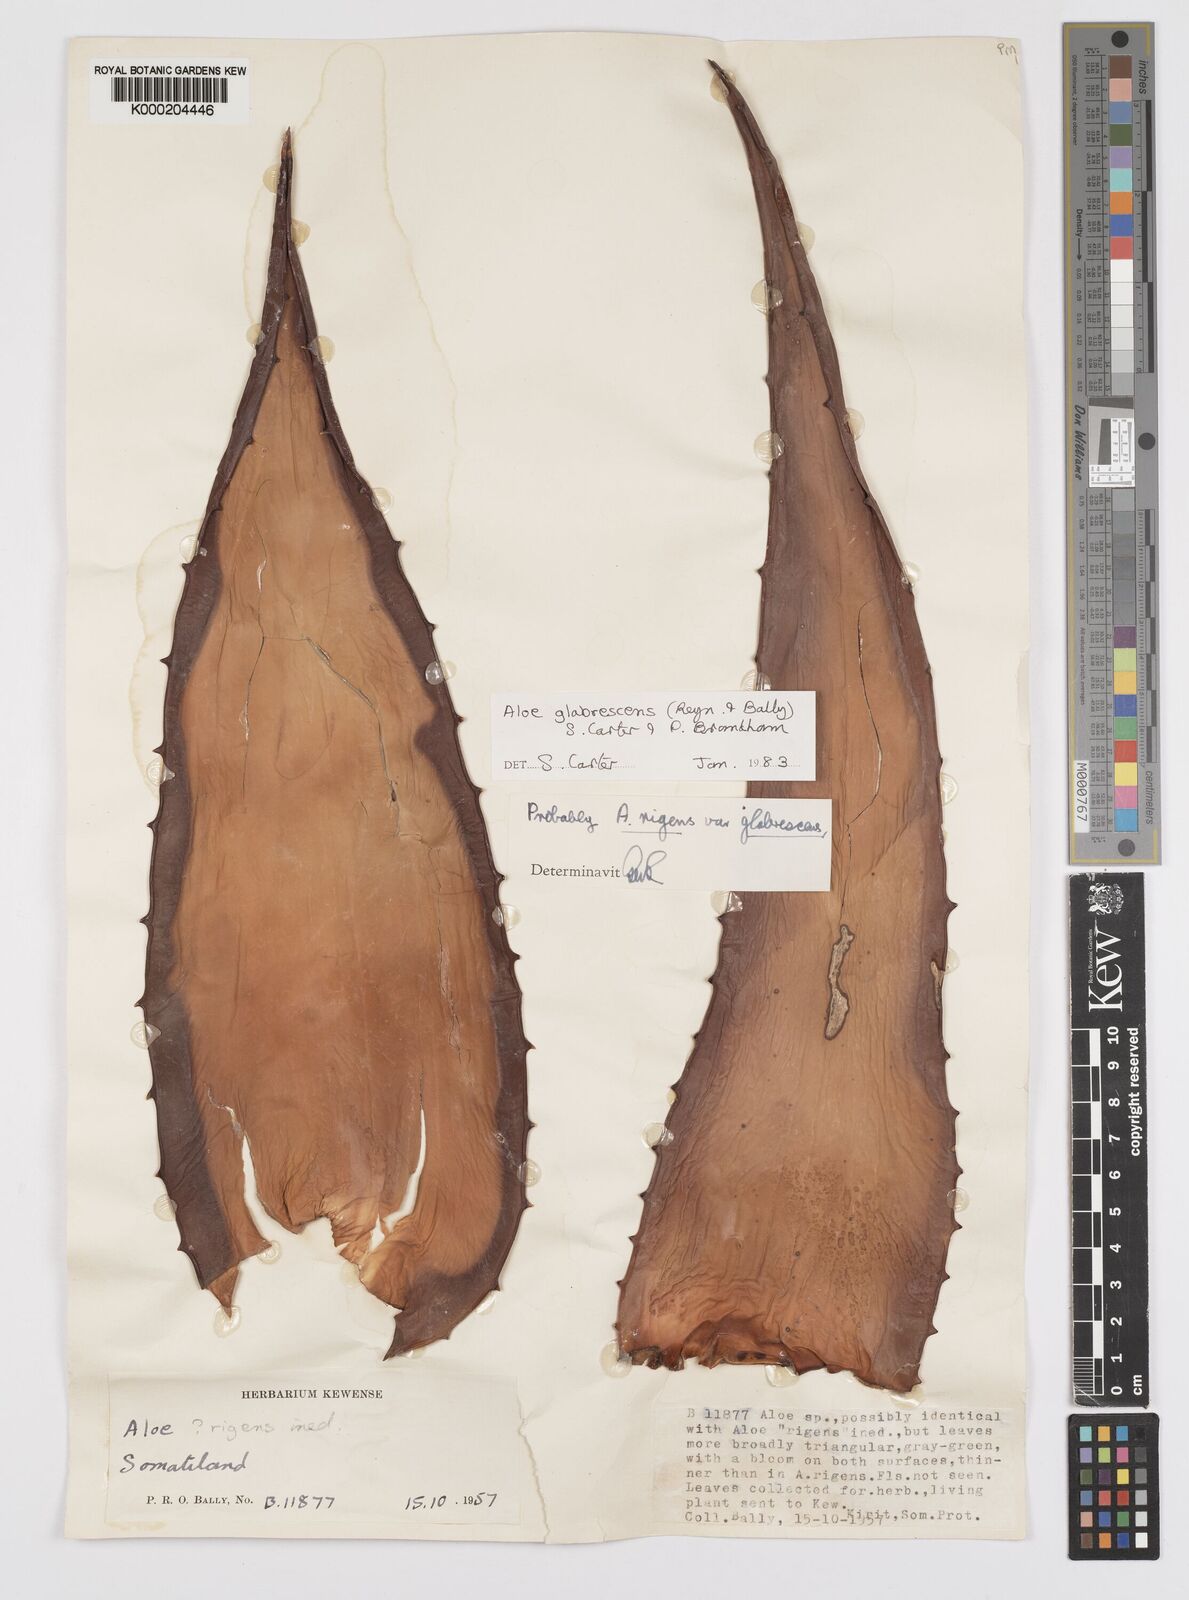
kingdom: Plantae
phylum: Tracheophyta
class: Liliopsida
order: Asparagales
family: Asphodelaceae
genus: Aloe
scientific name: Aloe glabrescens
